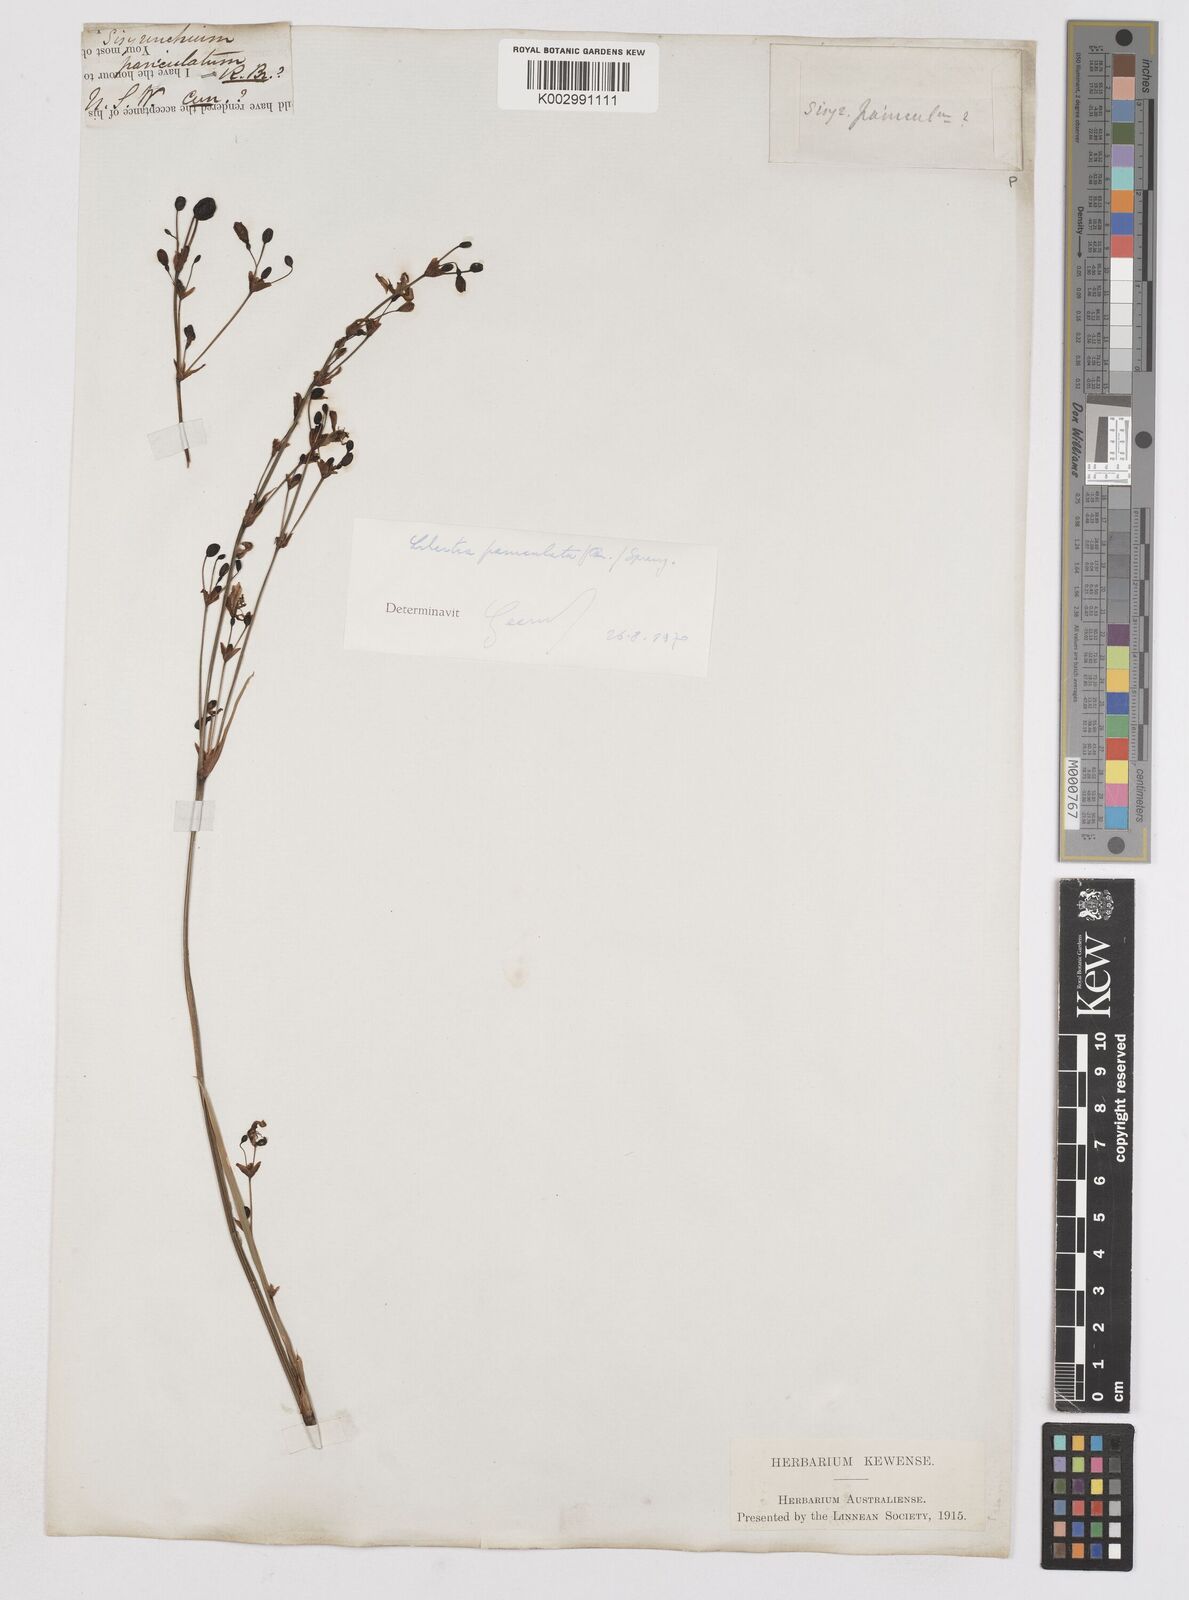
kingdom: Plantae
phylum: Tracheophyta
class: Liliopsida
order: Asparagales
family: Iridaceae
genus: Libertia
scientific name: Libertia paniculata
